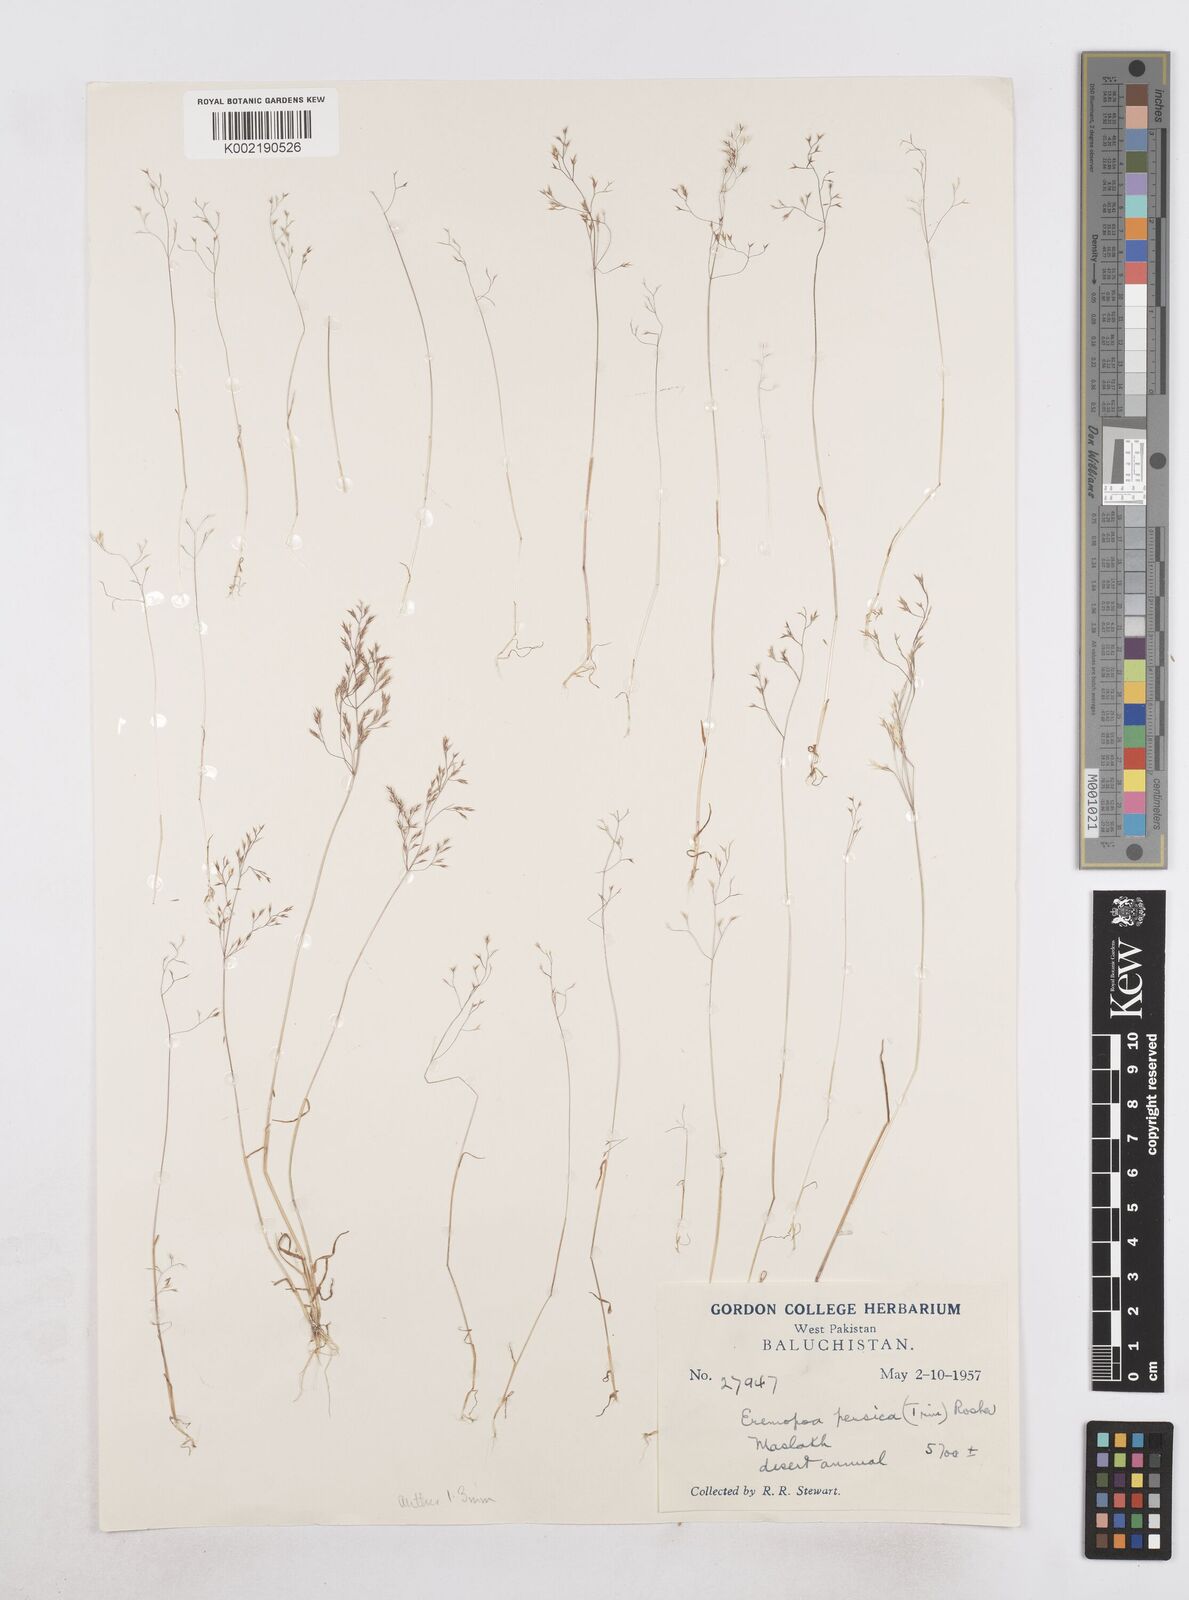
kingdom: Plantae
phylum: Tracheophyta
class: Liliopsida
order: Poales
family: Poaceae
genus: Poa
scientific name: Poa persica
